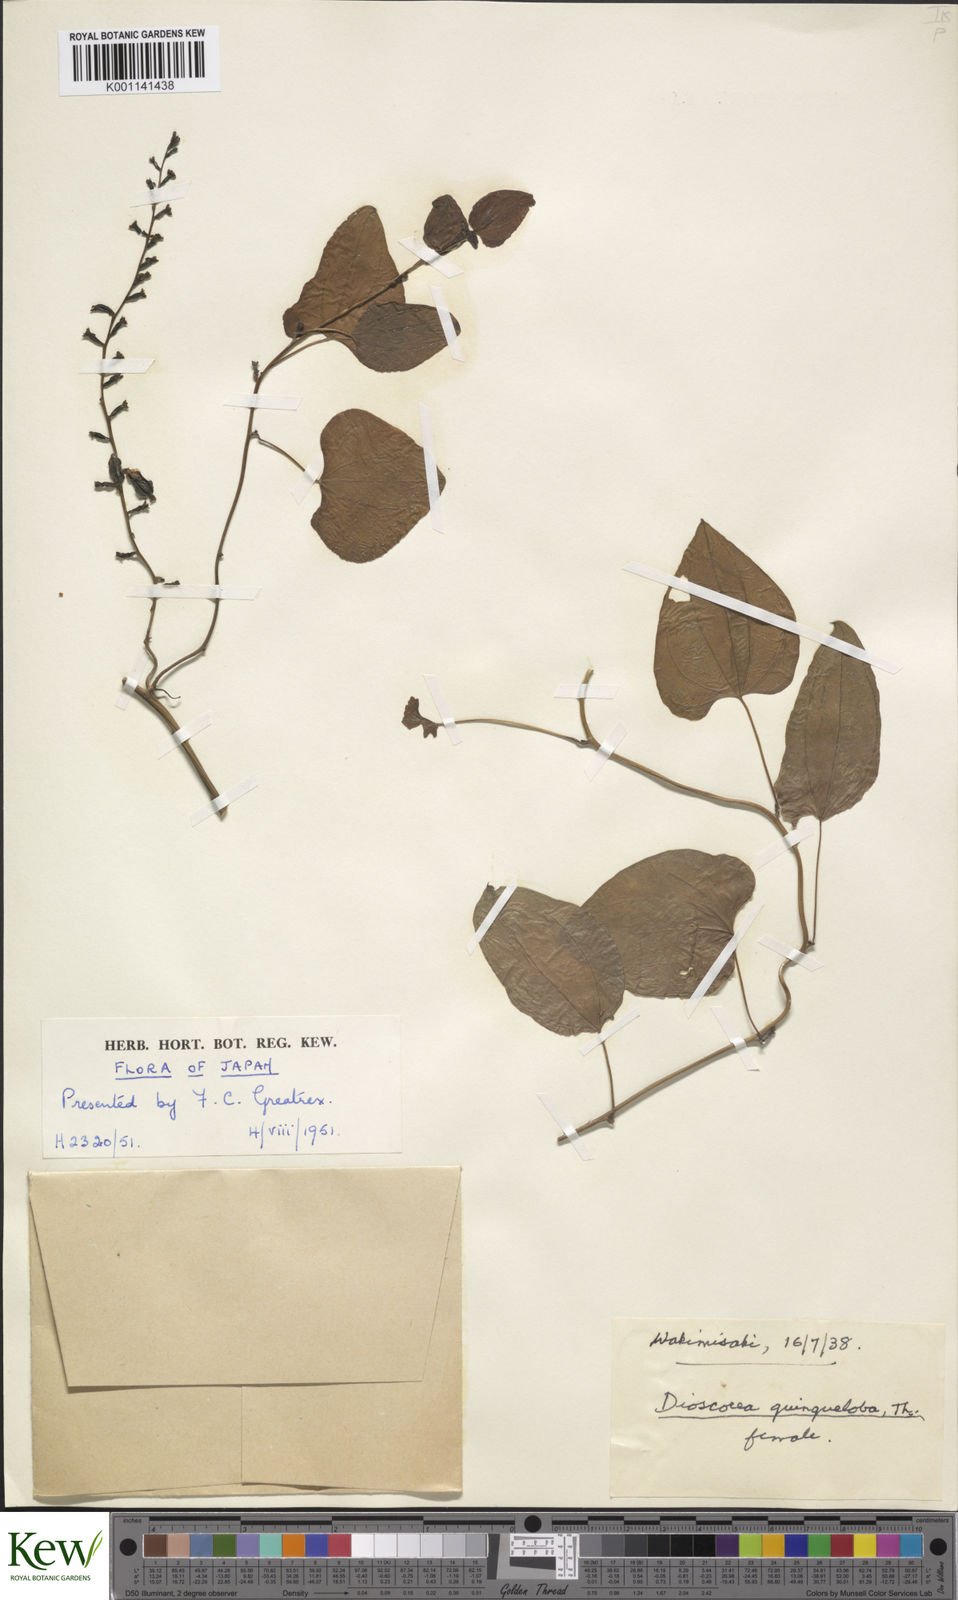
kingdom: Plantae
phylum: Tracheophyta
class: Liliopsida
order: Dioscoreales
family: Dioscoreaceae
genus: Dioscorea
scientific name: Dioscorea quinquelobata
